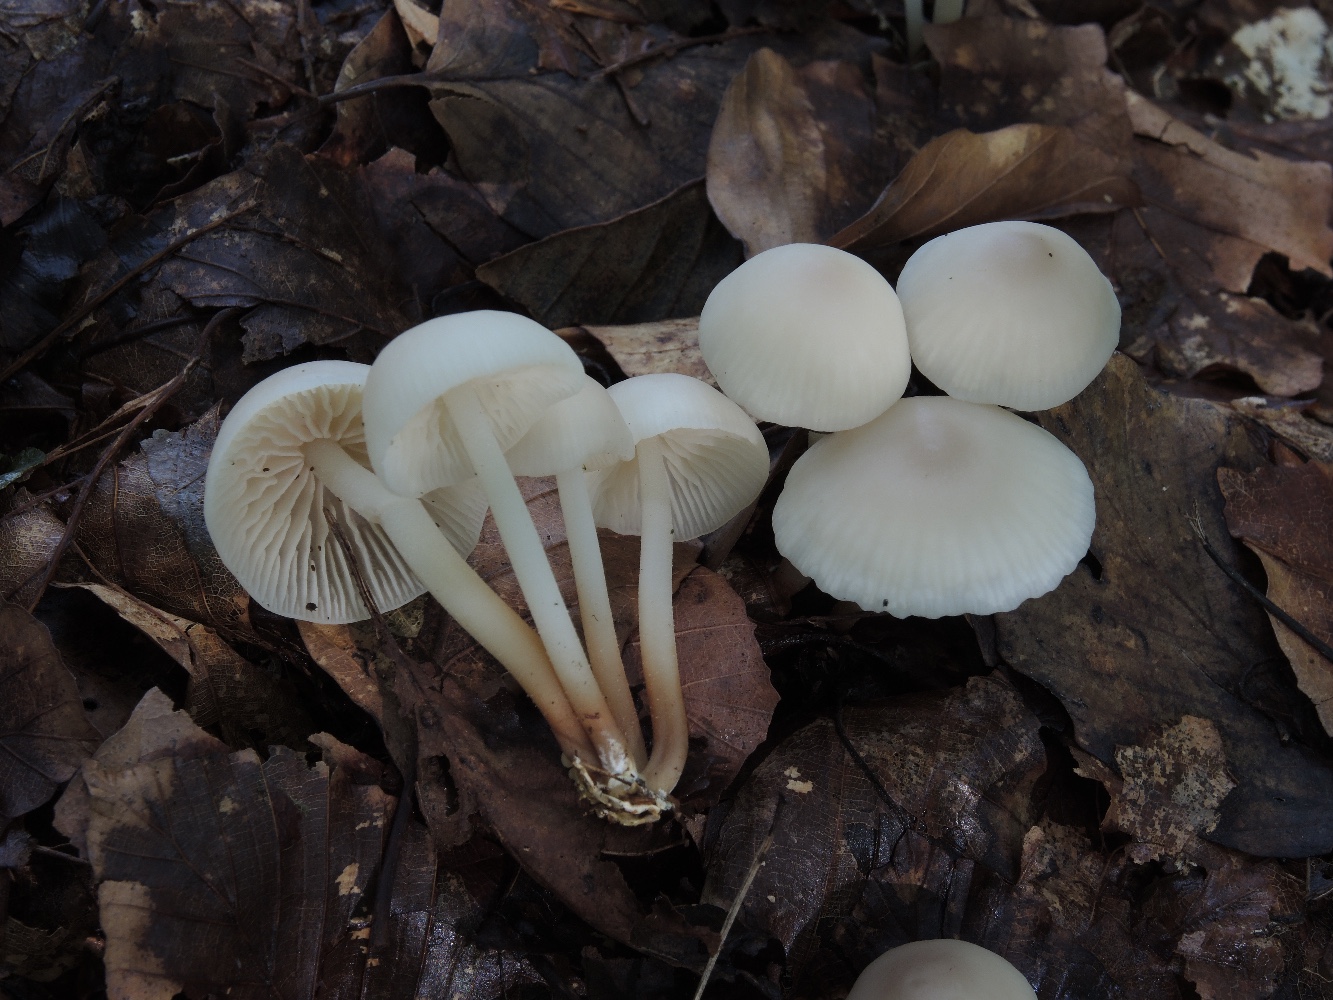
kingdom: Fungi
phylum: Basidiomycota
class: Agaricomycetes
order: Agaricales
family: Marasmiaceae
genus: Marasmius
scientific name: Marasmius wynneae
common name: hvælvet bruskhat
